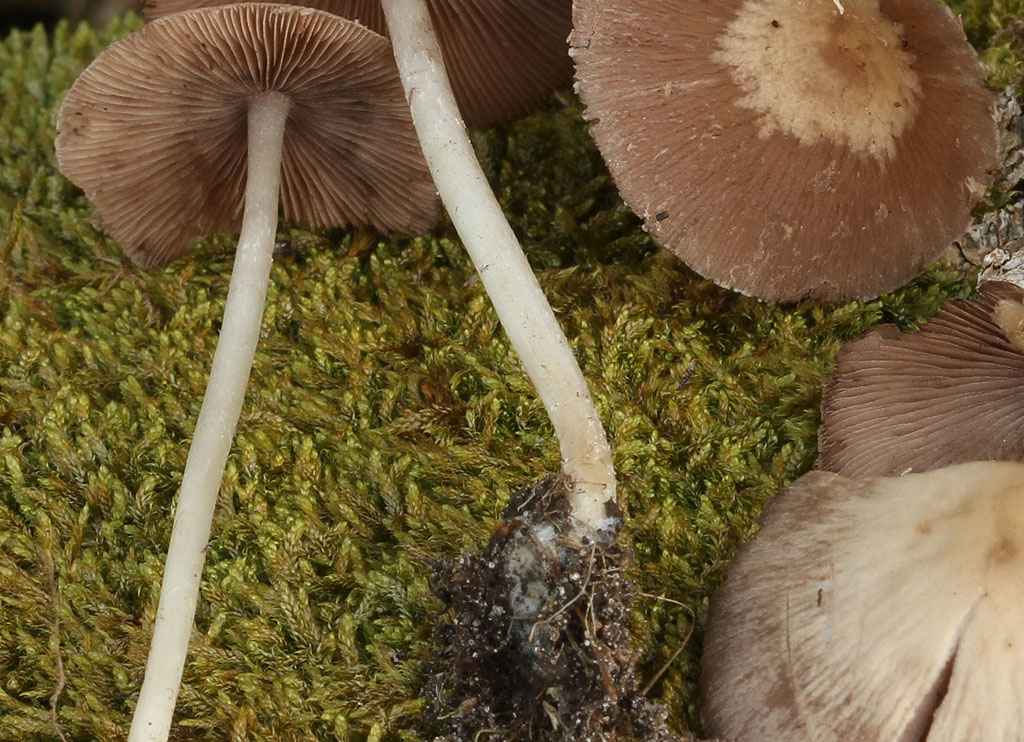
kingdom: Fungi
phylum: Basidiomycota
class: Agaricomycetes
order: Agaricales
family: Psathyrellaceae
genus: Candolleomyces
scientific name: Candolleomyces candolleanus
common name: Candolles mørkhat
